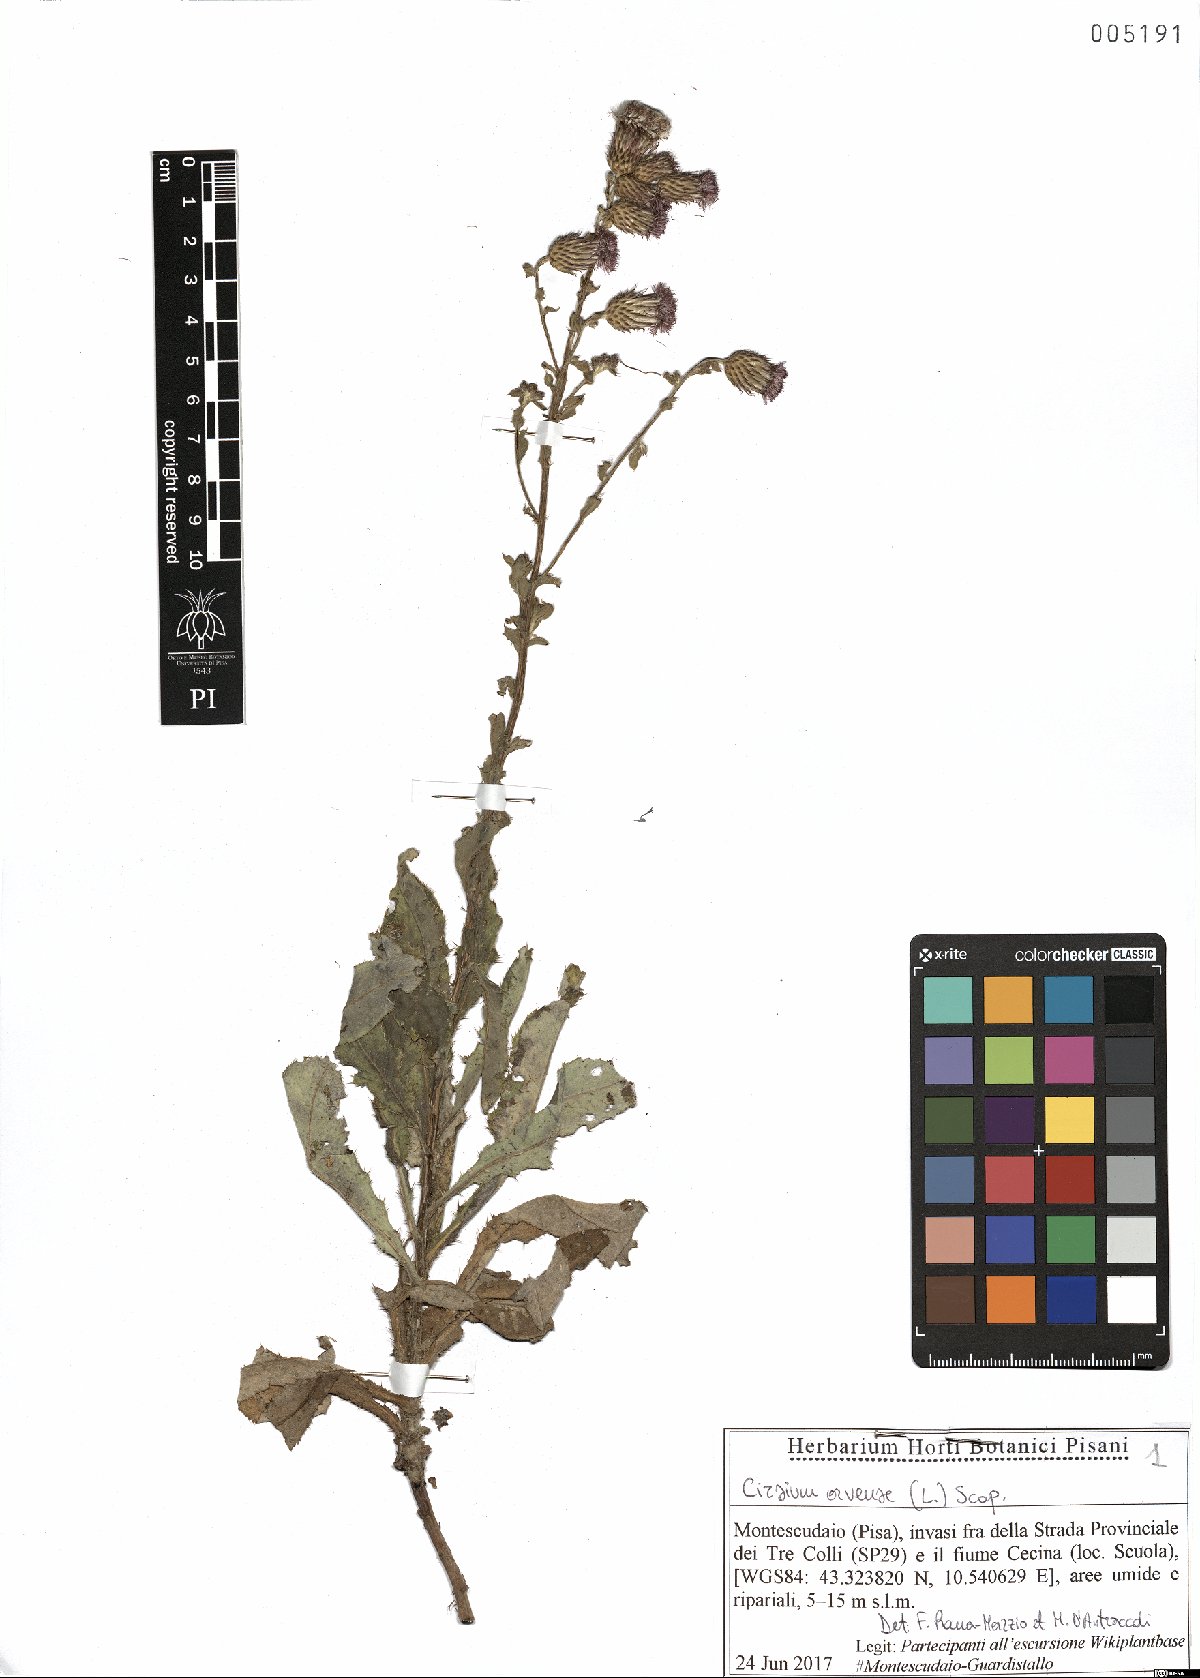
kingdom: Plantae
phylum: Tracheophyta
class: Magnoliopsida
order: Asterales
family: Asteraceae
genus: Cirsium
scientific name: Cirsium arvense
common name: Creeping thistle
